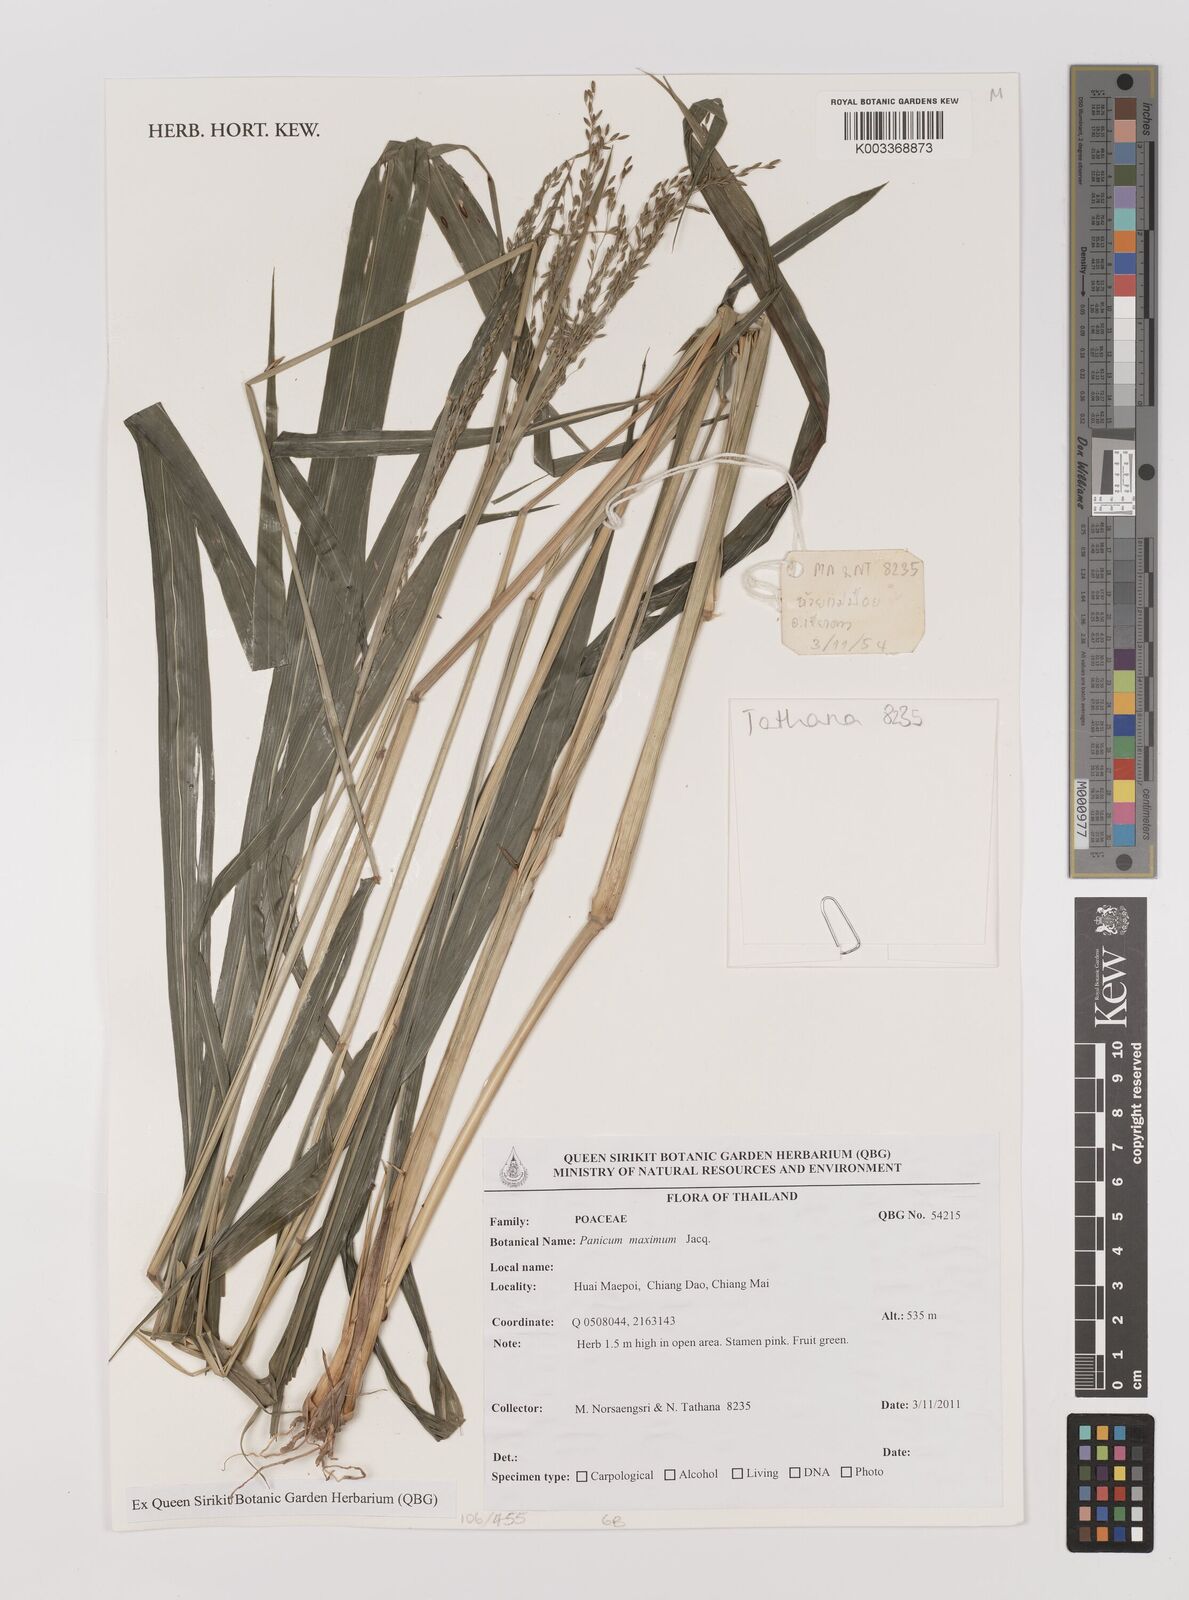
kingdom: Plantae
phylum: Tracheophyta
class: Liliopsida
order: Poales
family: Poaceae
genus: Megathyrsus
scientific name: Megathyrsus maximus
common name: Guineagrass
